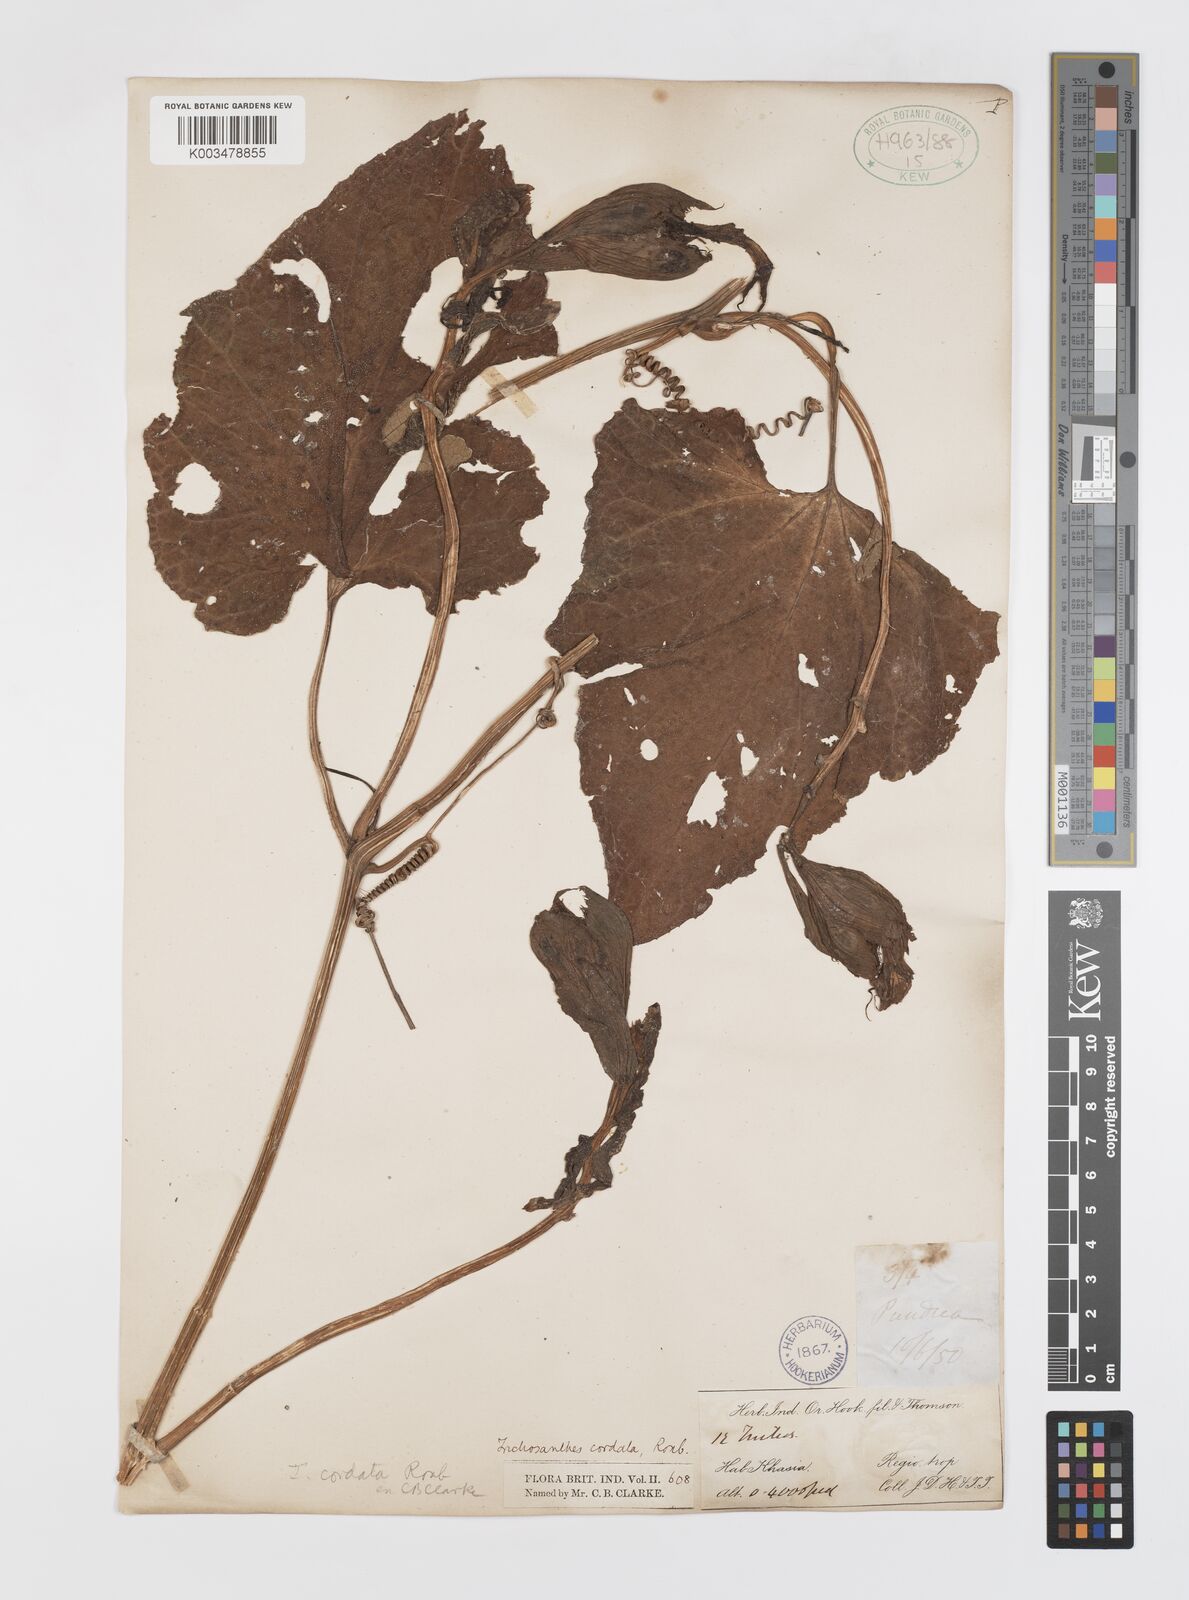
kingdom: Plantae
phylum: Tracheophyta
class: Magnoliopsida
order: Cucurbitales
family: Cucurbitaceae
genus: Trichosanthes
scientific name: Trichosanthes cordata
